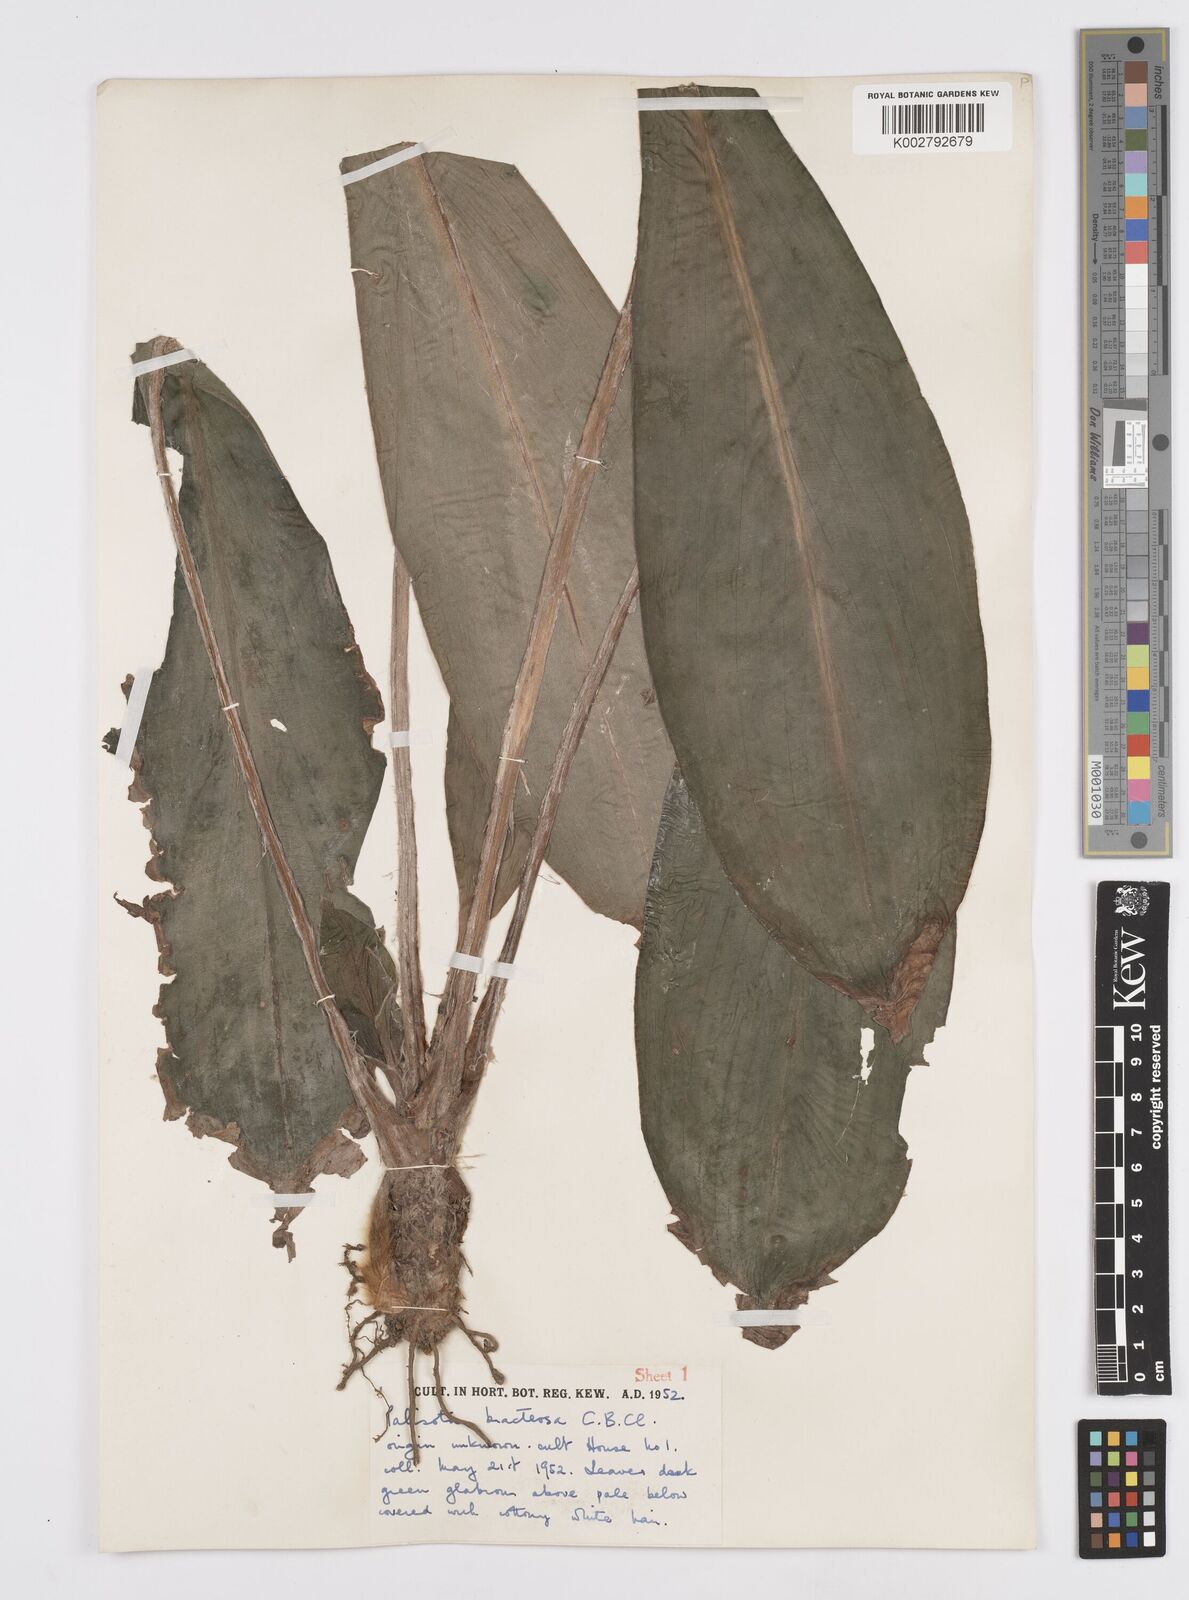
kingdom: Plantae
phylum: Tracheophyta
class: Liliopsida
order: Commelinales
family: Commelinaceae
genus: Palisota
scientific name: Palisota bracteosa
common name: Palisota
